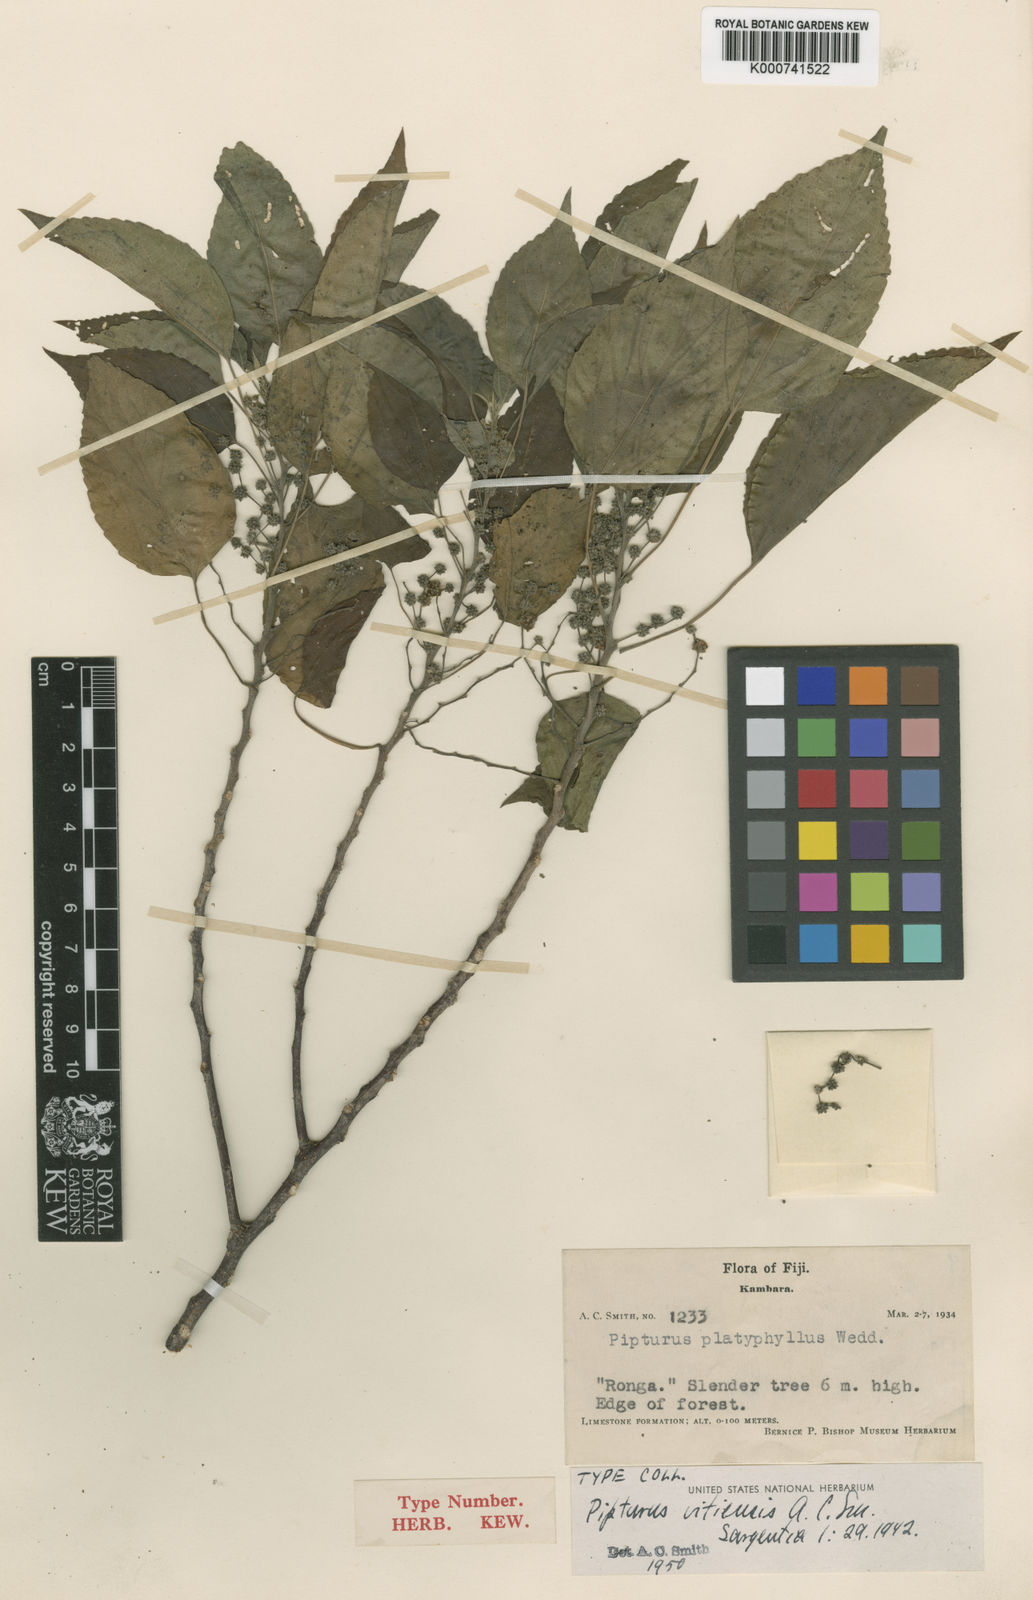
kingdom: Plantae
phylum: Tracheophyta
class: Magnoliopsida
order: Rosales
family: Urticaceae
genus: Pipturus
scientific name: Pipturus vitiensis
